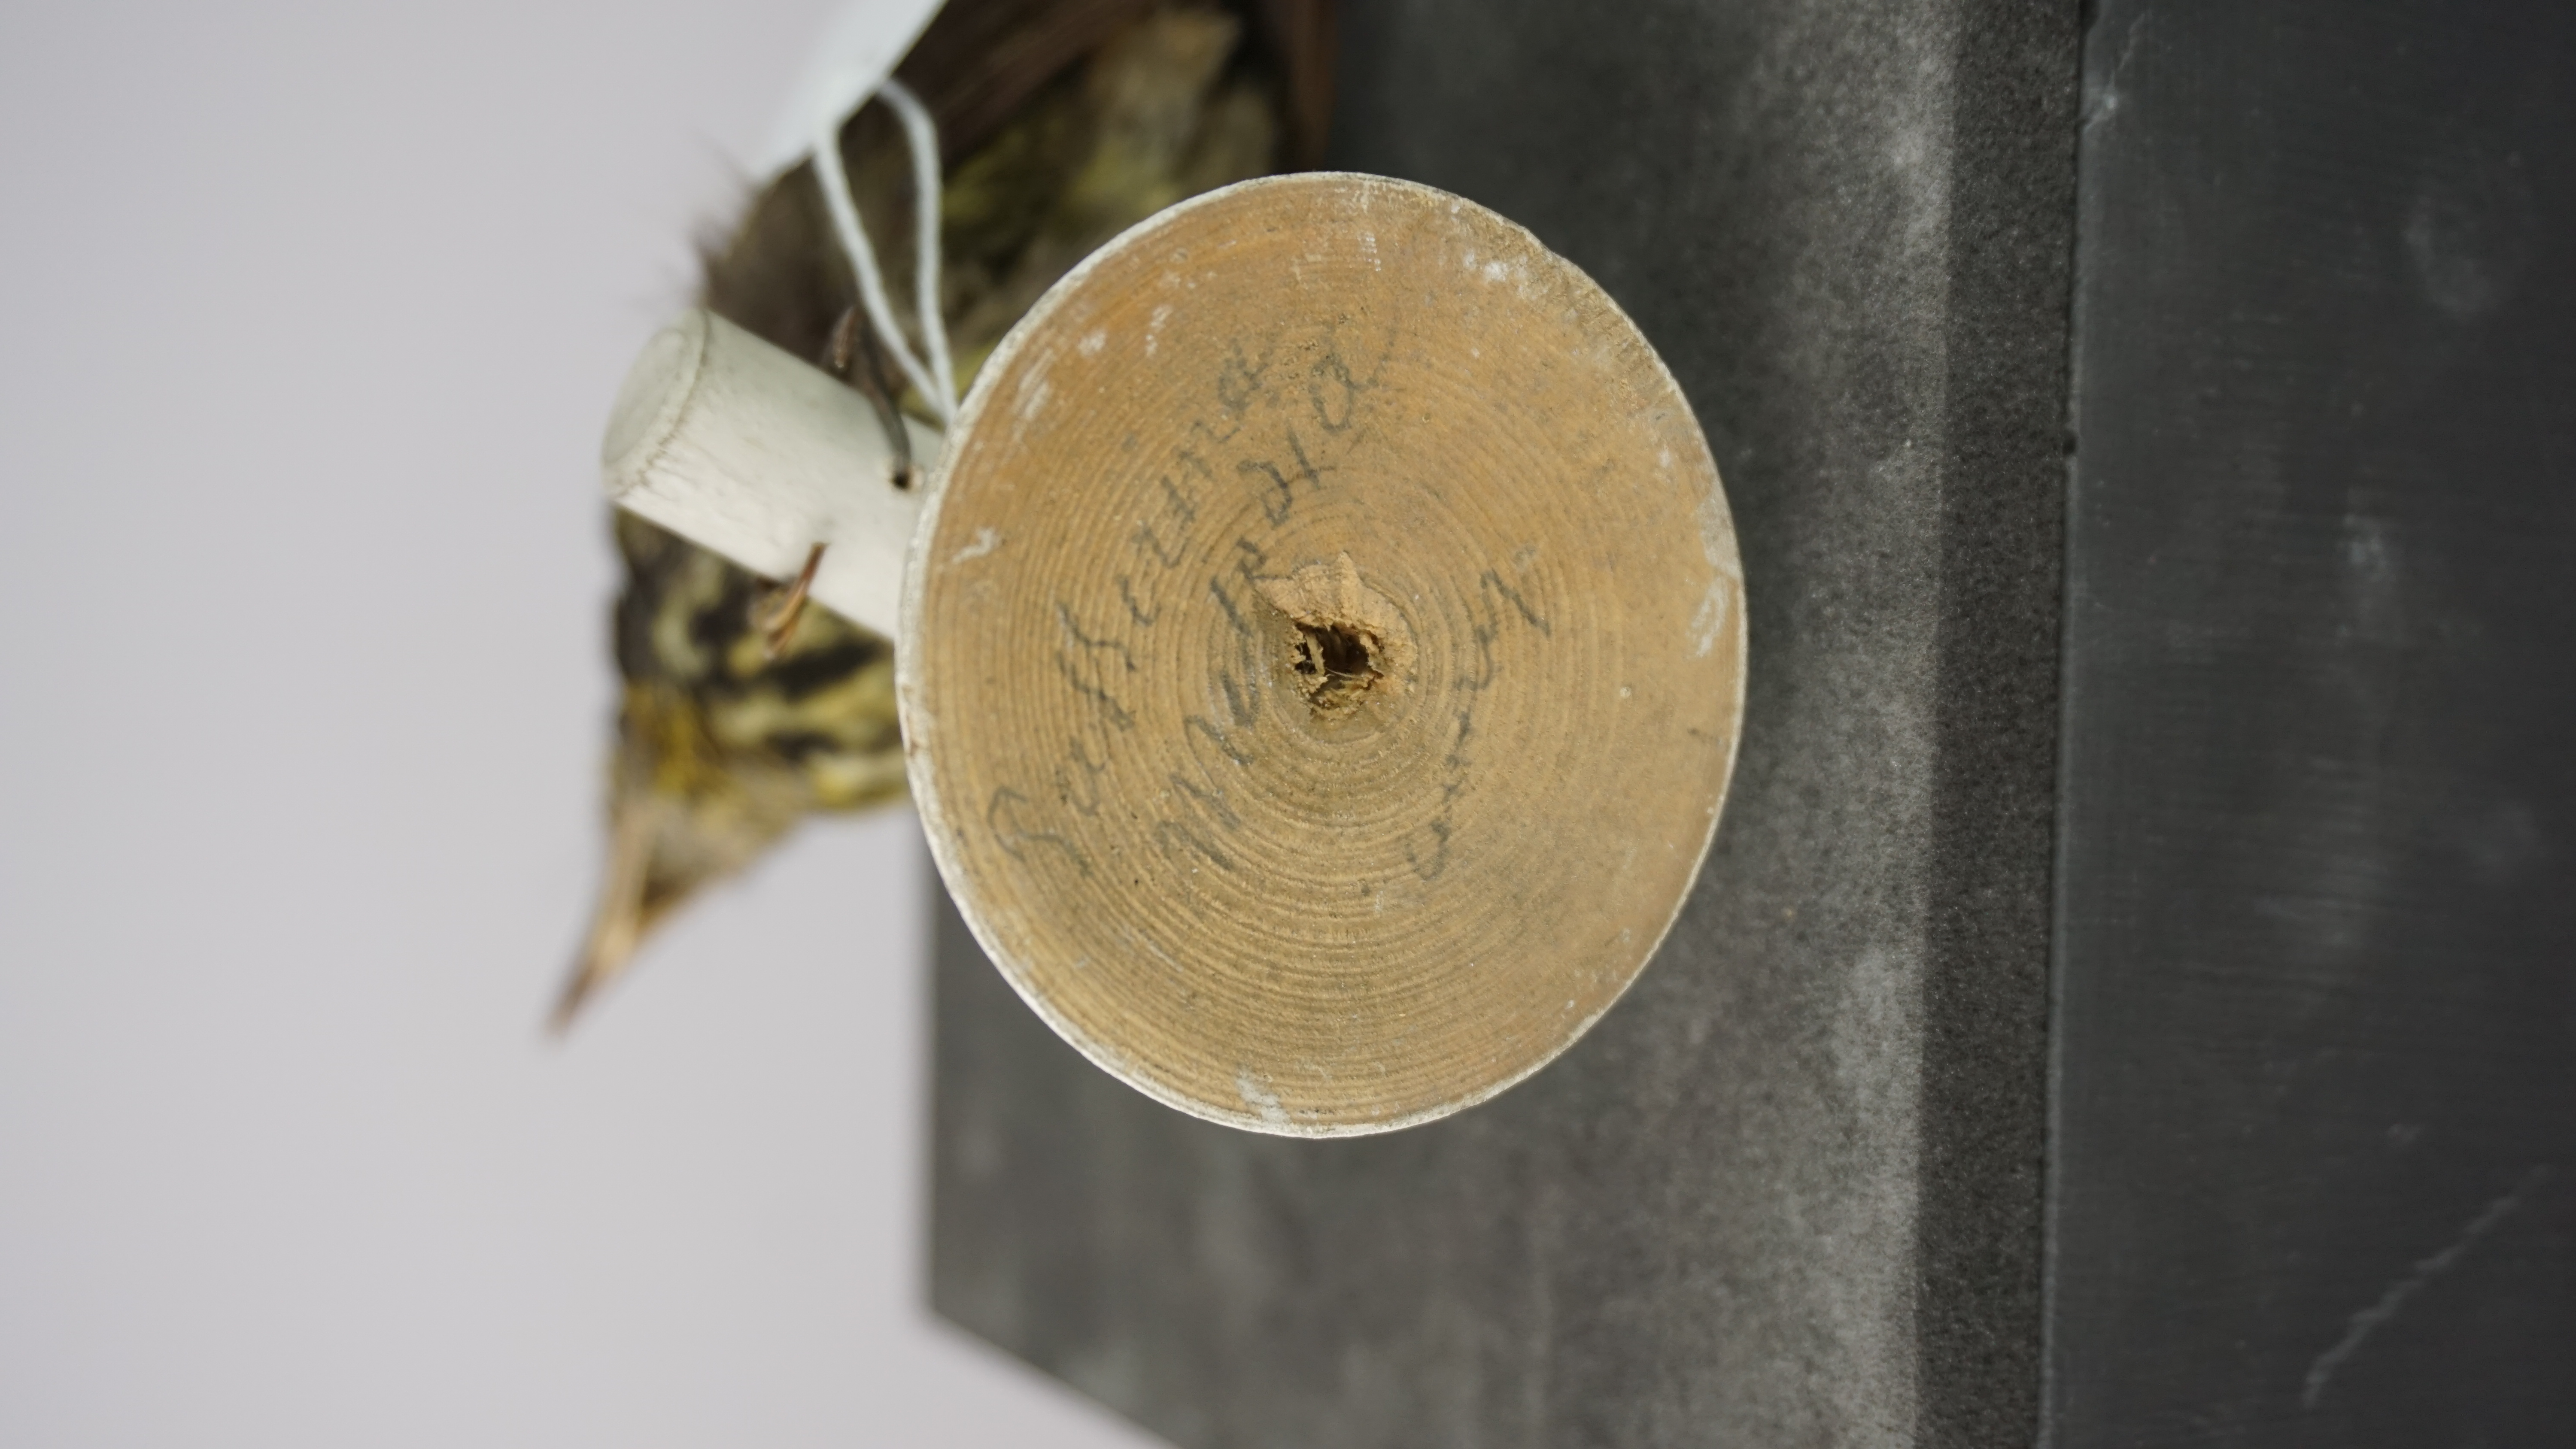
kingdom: Animalia
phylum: Chordata
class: Aves
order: Piciformes
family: Capitonidae
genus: Capito
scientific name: Capito auratus
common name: Gilded barbet
